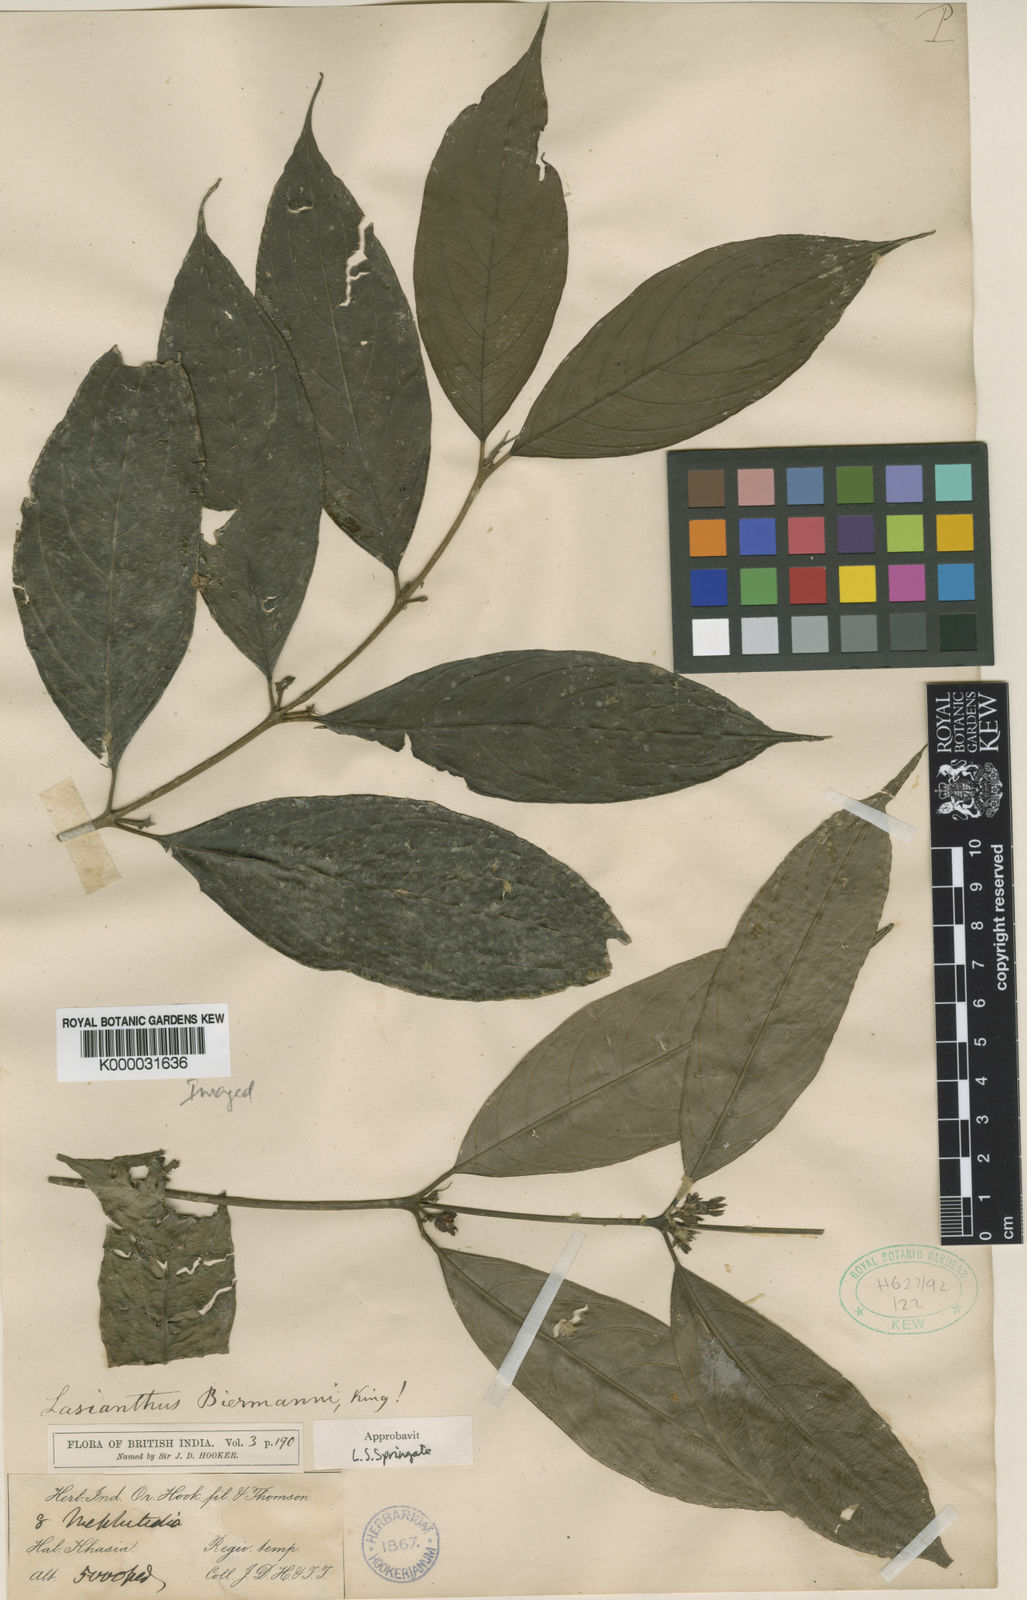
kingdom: Plantae
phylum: Tracheophyta
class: Magnoliopsida
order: Gentianales
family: Rubiaceae
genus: Lasianthus
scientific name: Lasianthus
